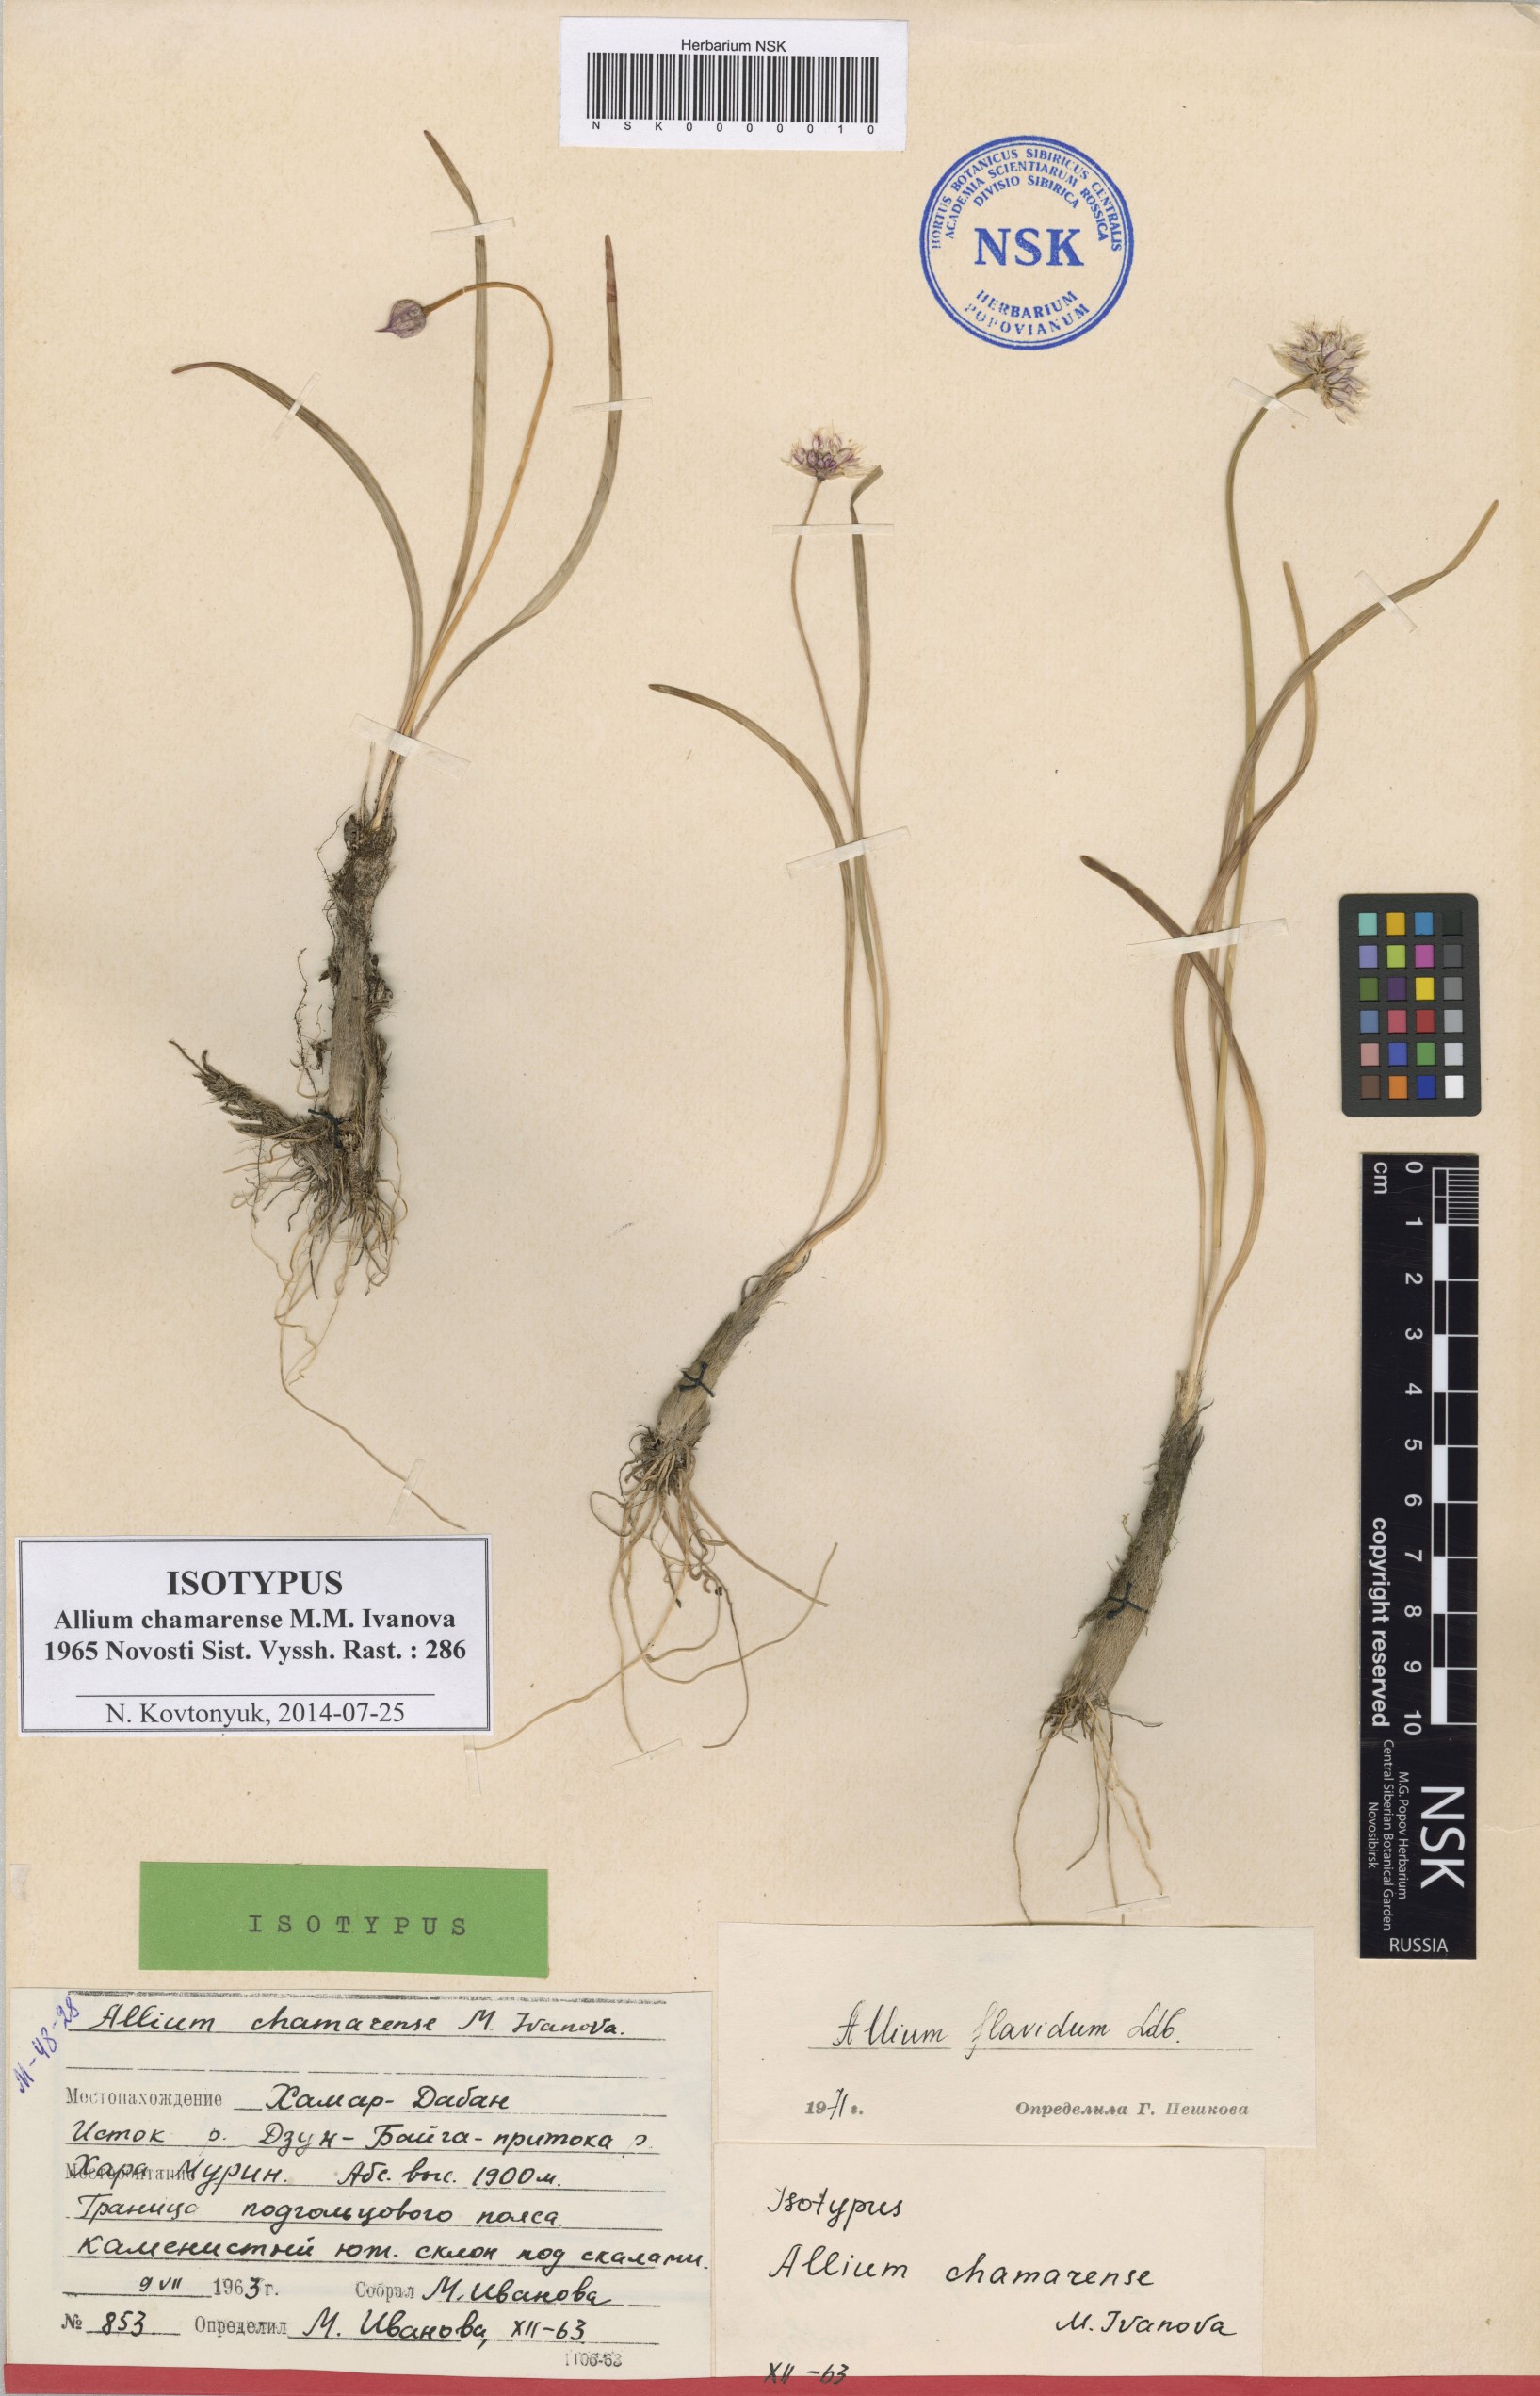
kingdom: Plantae
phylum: Tracheophyta
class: Liliopsida
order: Asparagales
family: Amaryllidaceae
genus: Allium
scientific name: Allium chamarense
